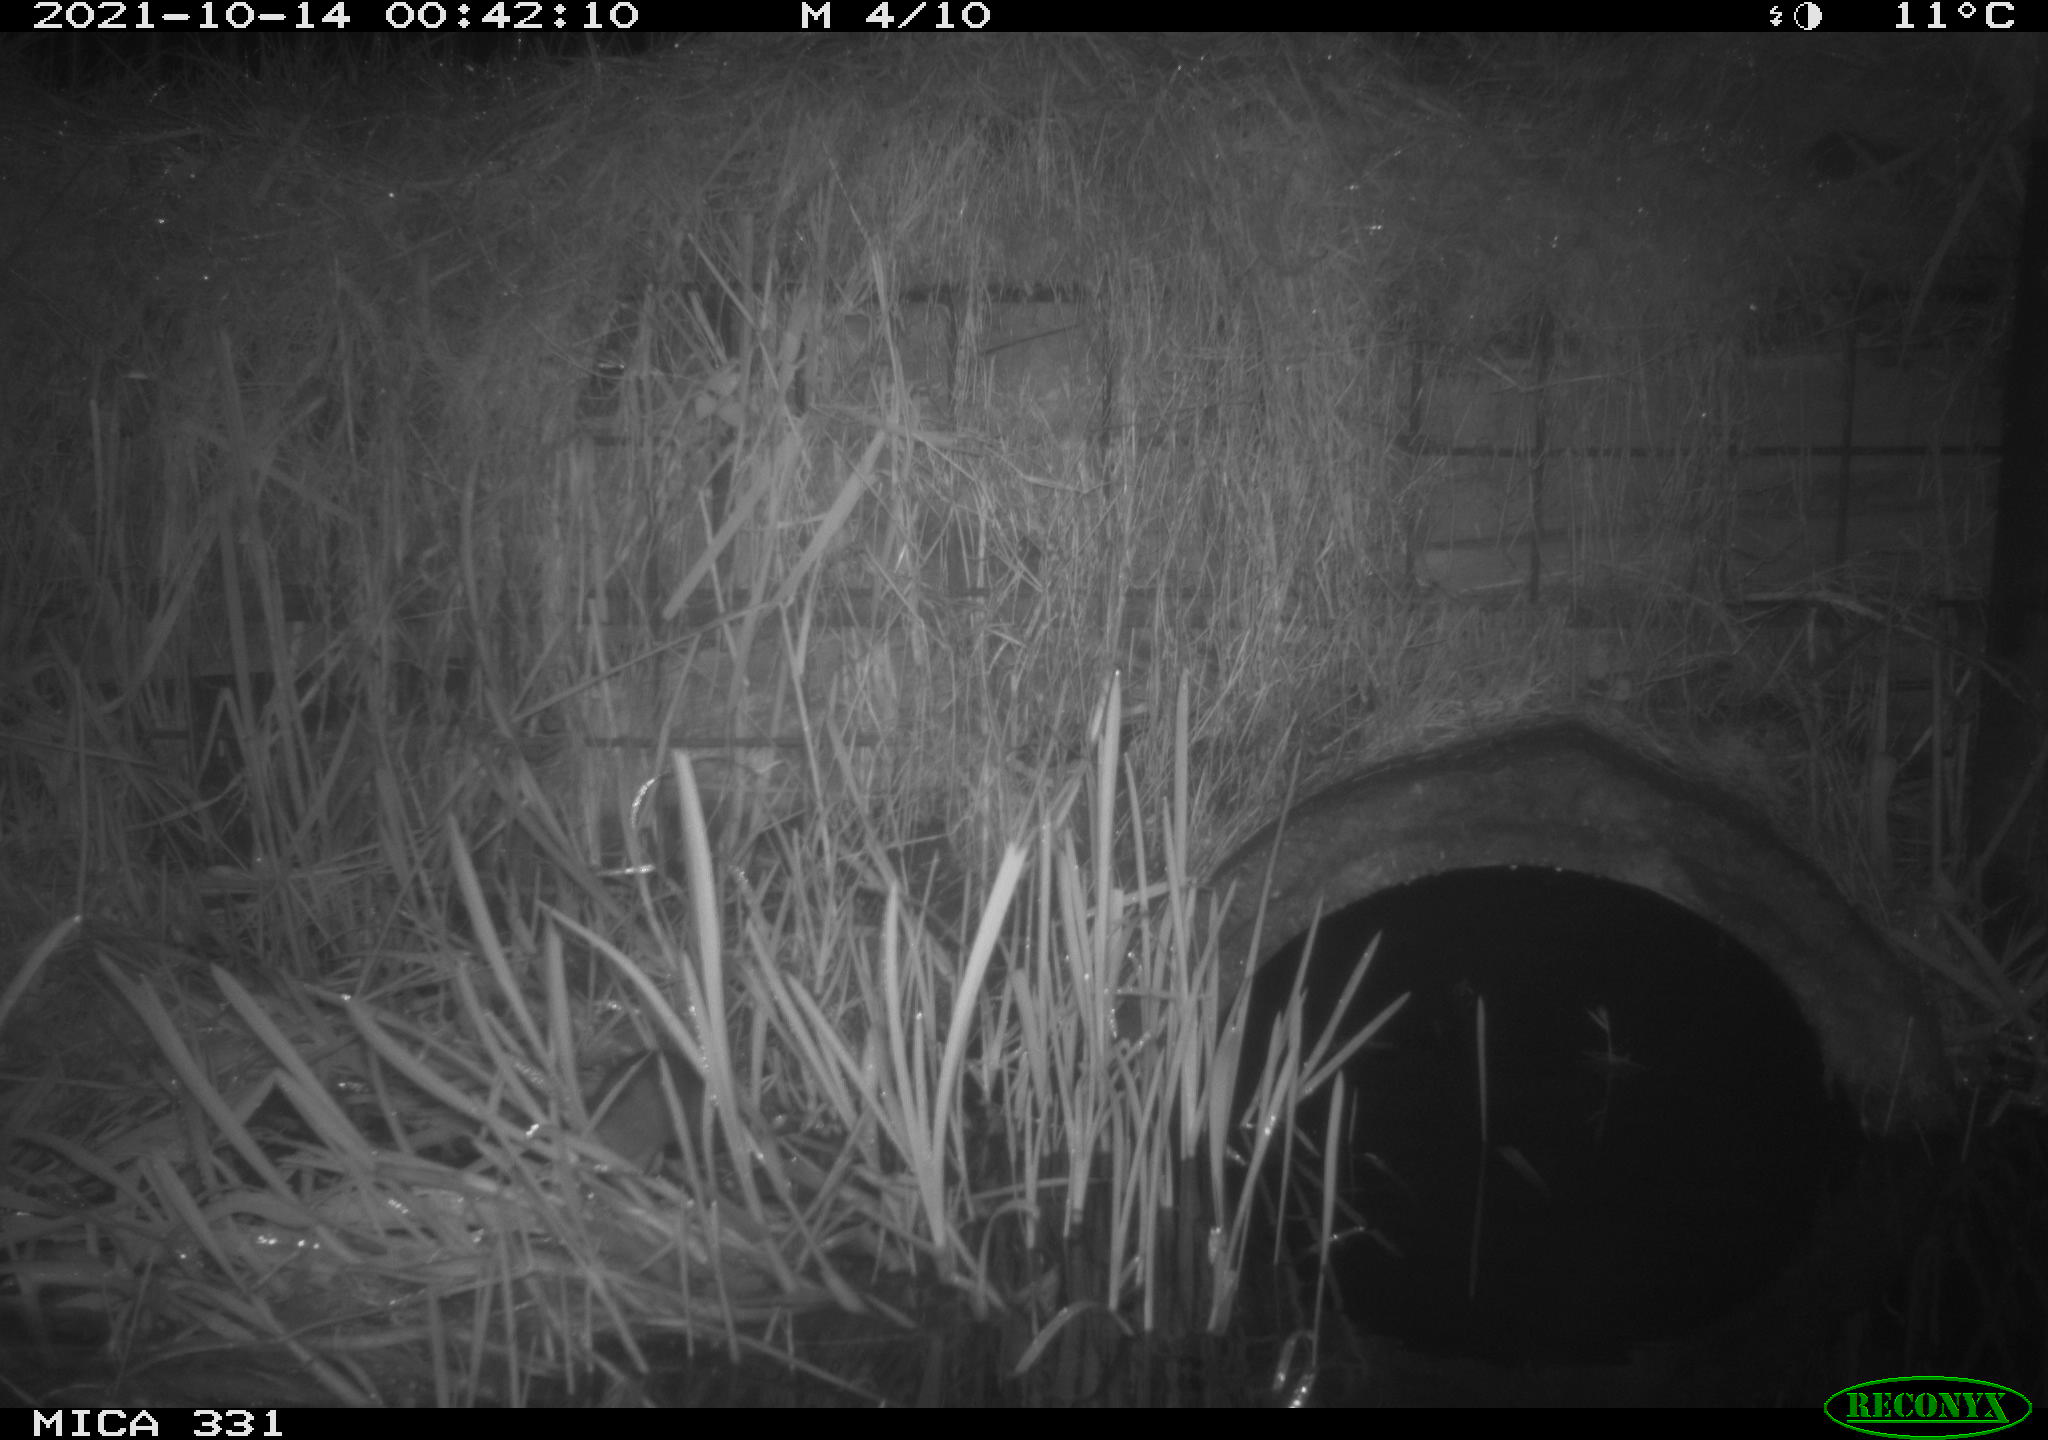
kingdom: Animalia
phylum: Chordata
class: Mammalia
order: Rodentia
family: Muridae
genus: Rattus
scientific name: Rattus norvegicus
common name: Brown rat
